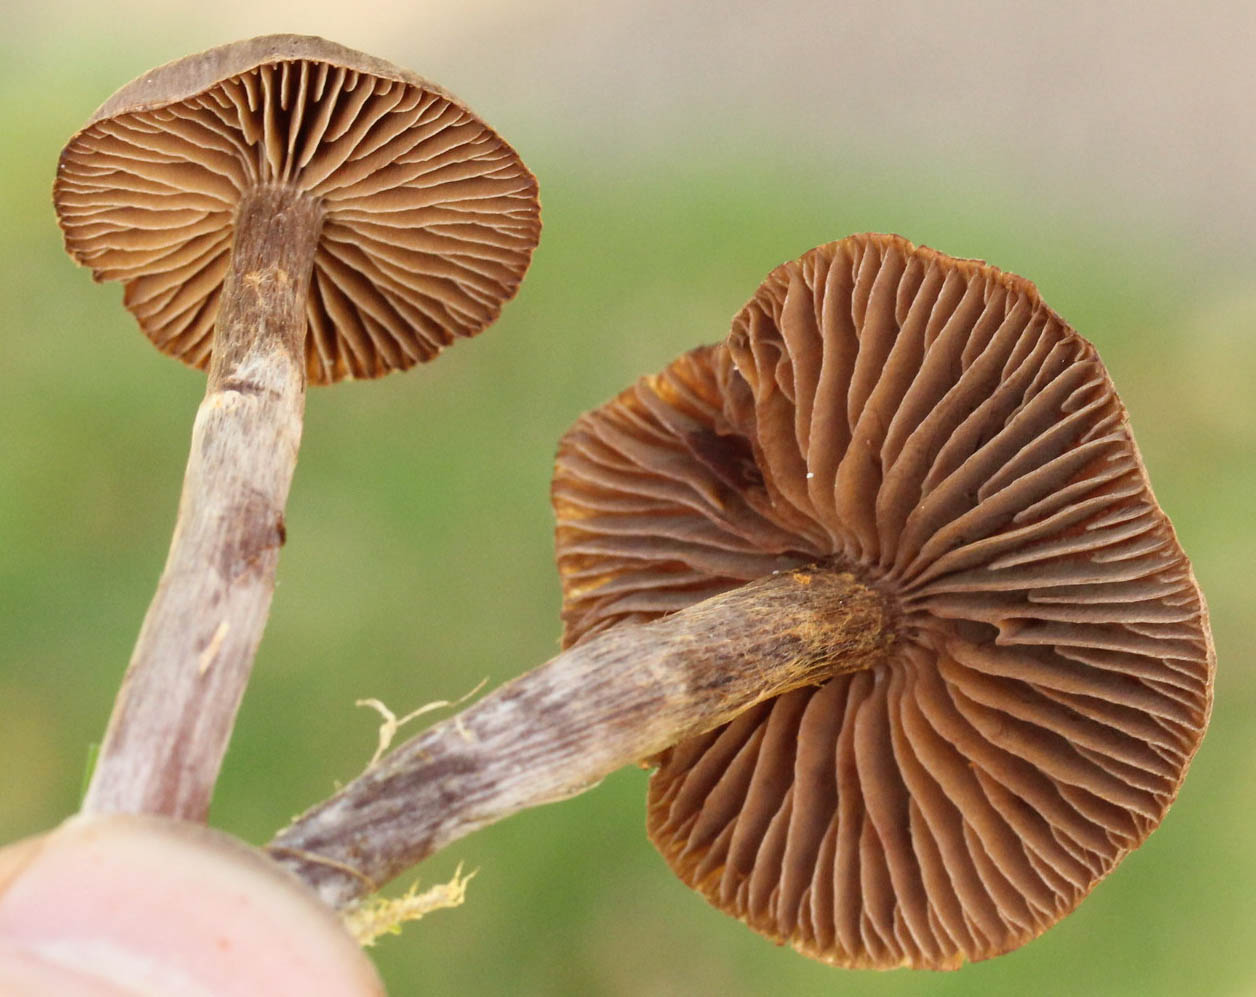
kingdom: Fungi
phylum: Basidiomycota
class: Agaricomycetes
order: Agaricales
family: Cortinariaceae
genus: Cortinarius
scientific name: Cortinarius umbrinolens
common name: mørk slørhat
